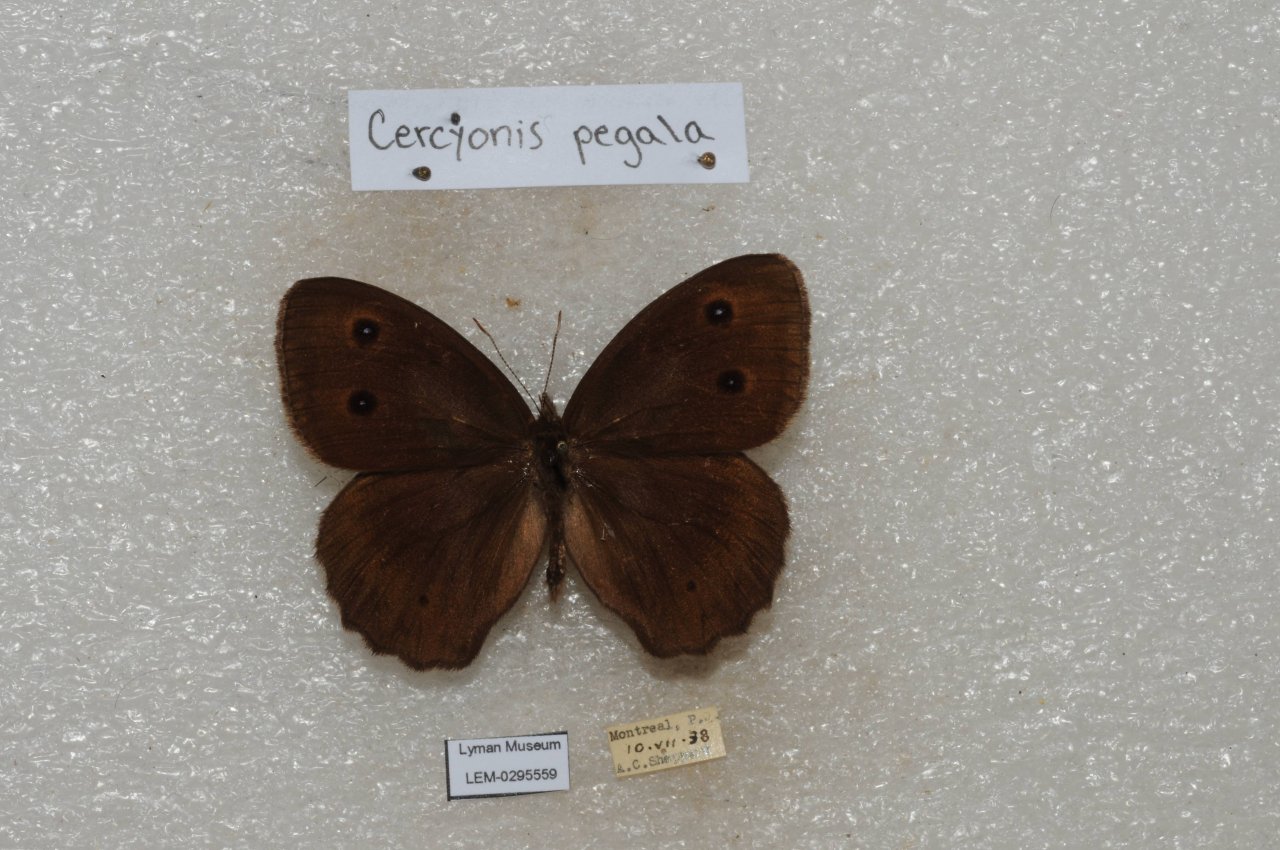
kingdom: Animalia
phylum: Arthropoda
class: Insecta
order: Lepidoptera
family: Nymphalidae
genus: Cercyonis
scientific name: Cercyonis pegala
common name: Common Wood-Nymph
